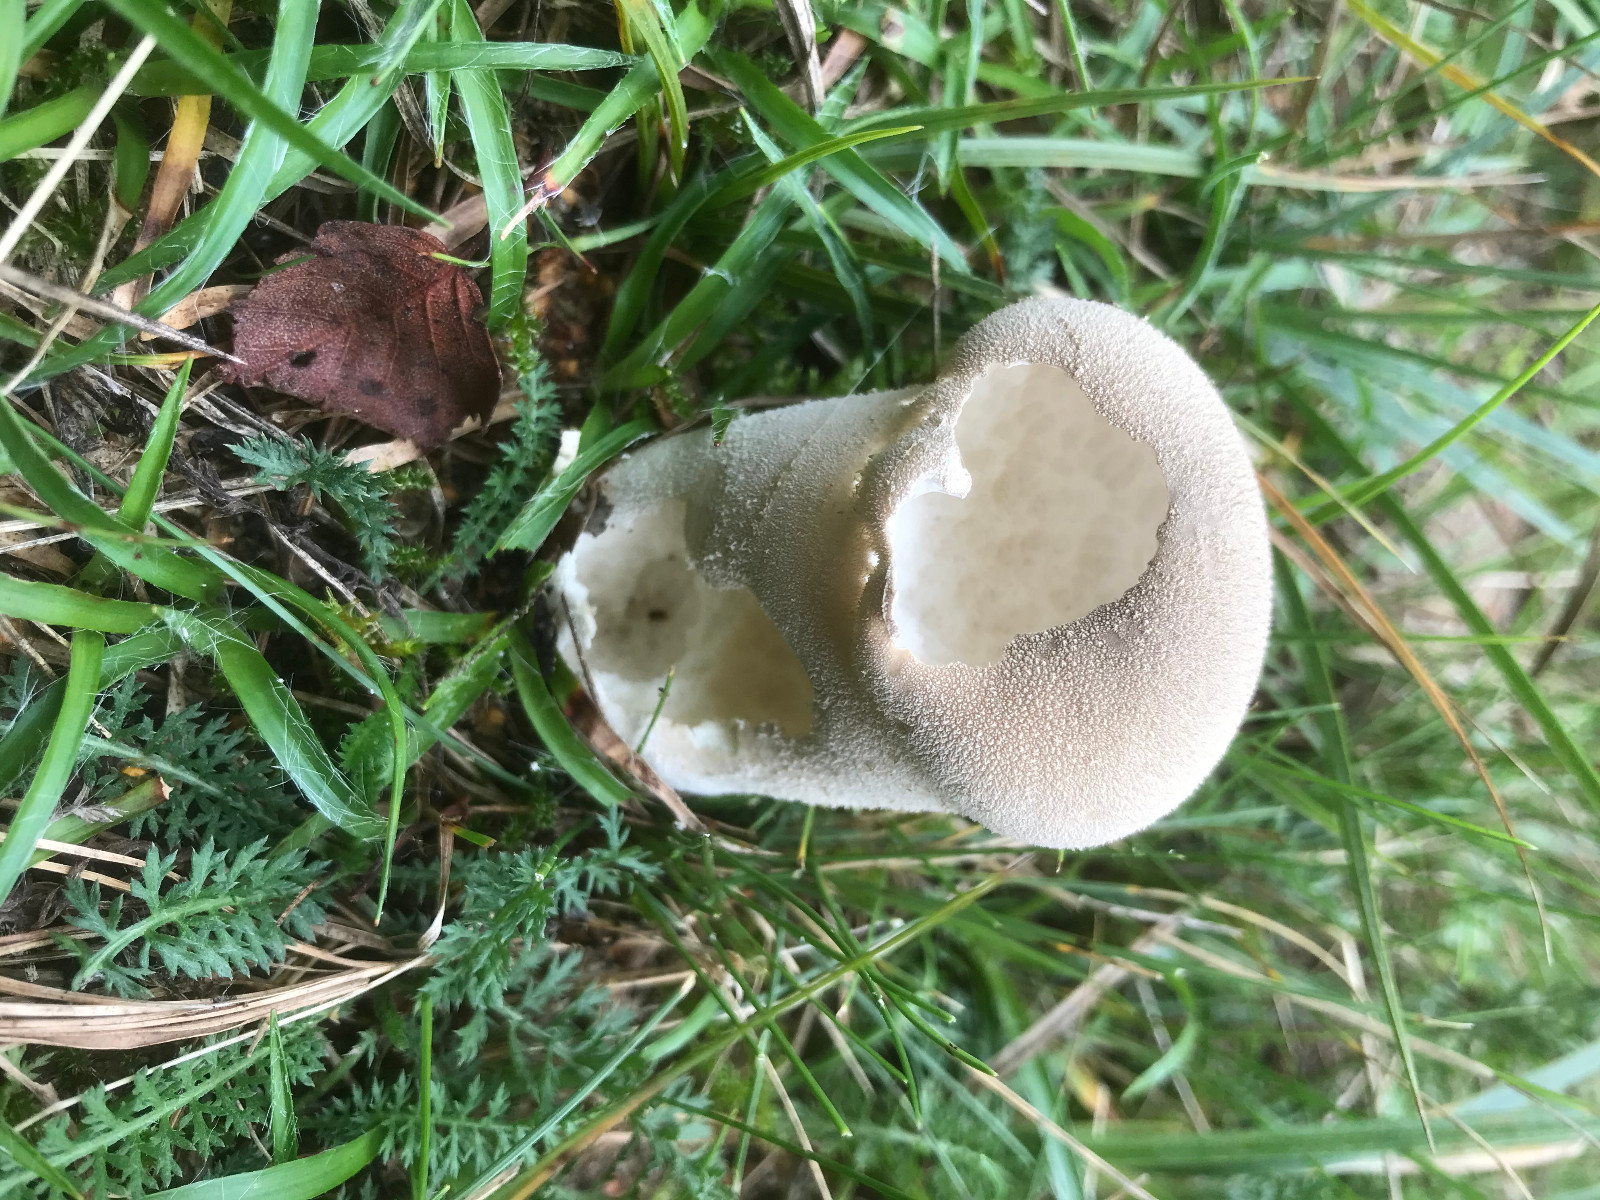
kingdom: Fungi
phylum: Basidiomycota
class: Agaricomycetes
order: Boletales
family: Sclerodermataceae
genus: Scleroderma
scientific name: Scleroderma verrucosum
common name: stilket bruskbold
